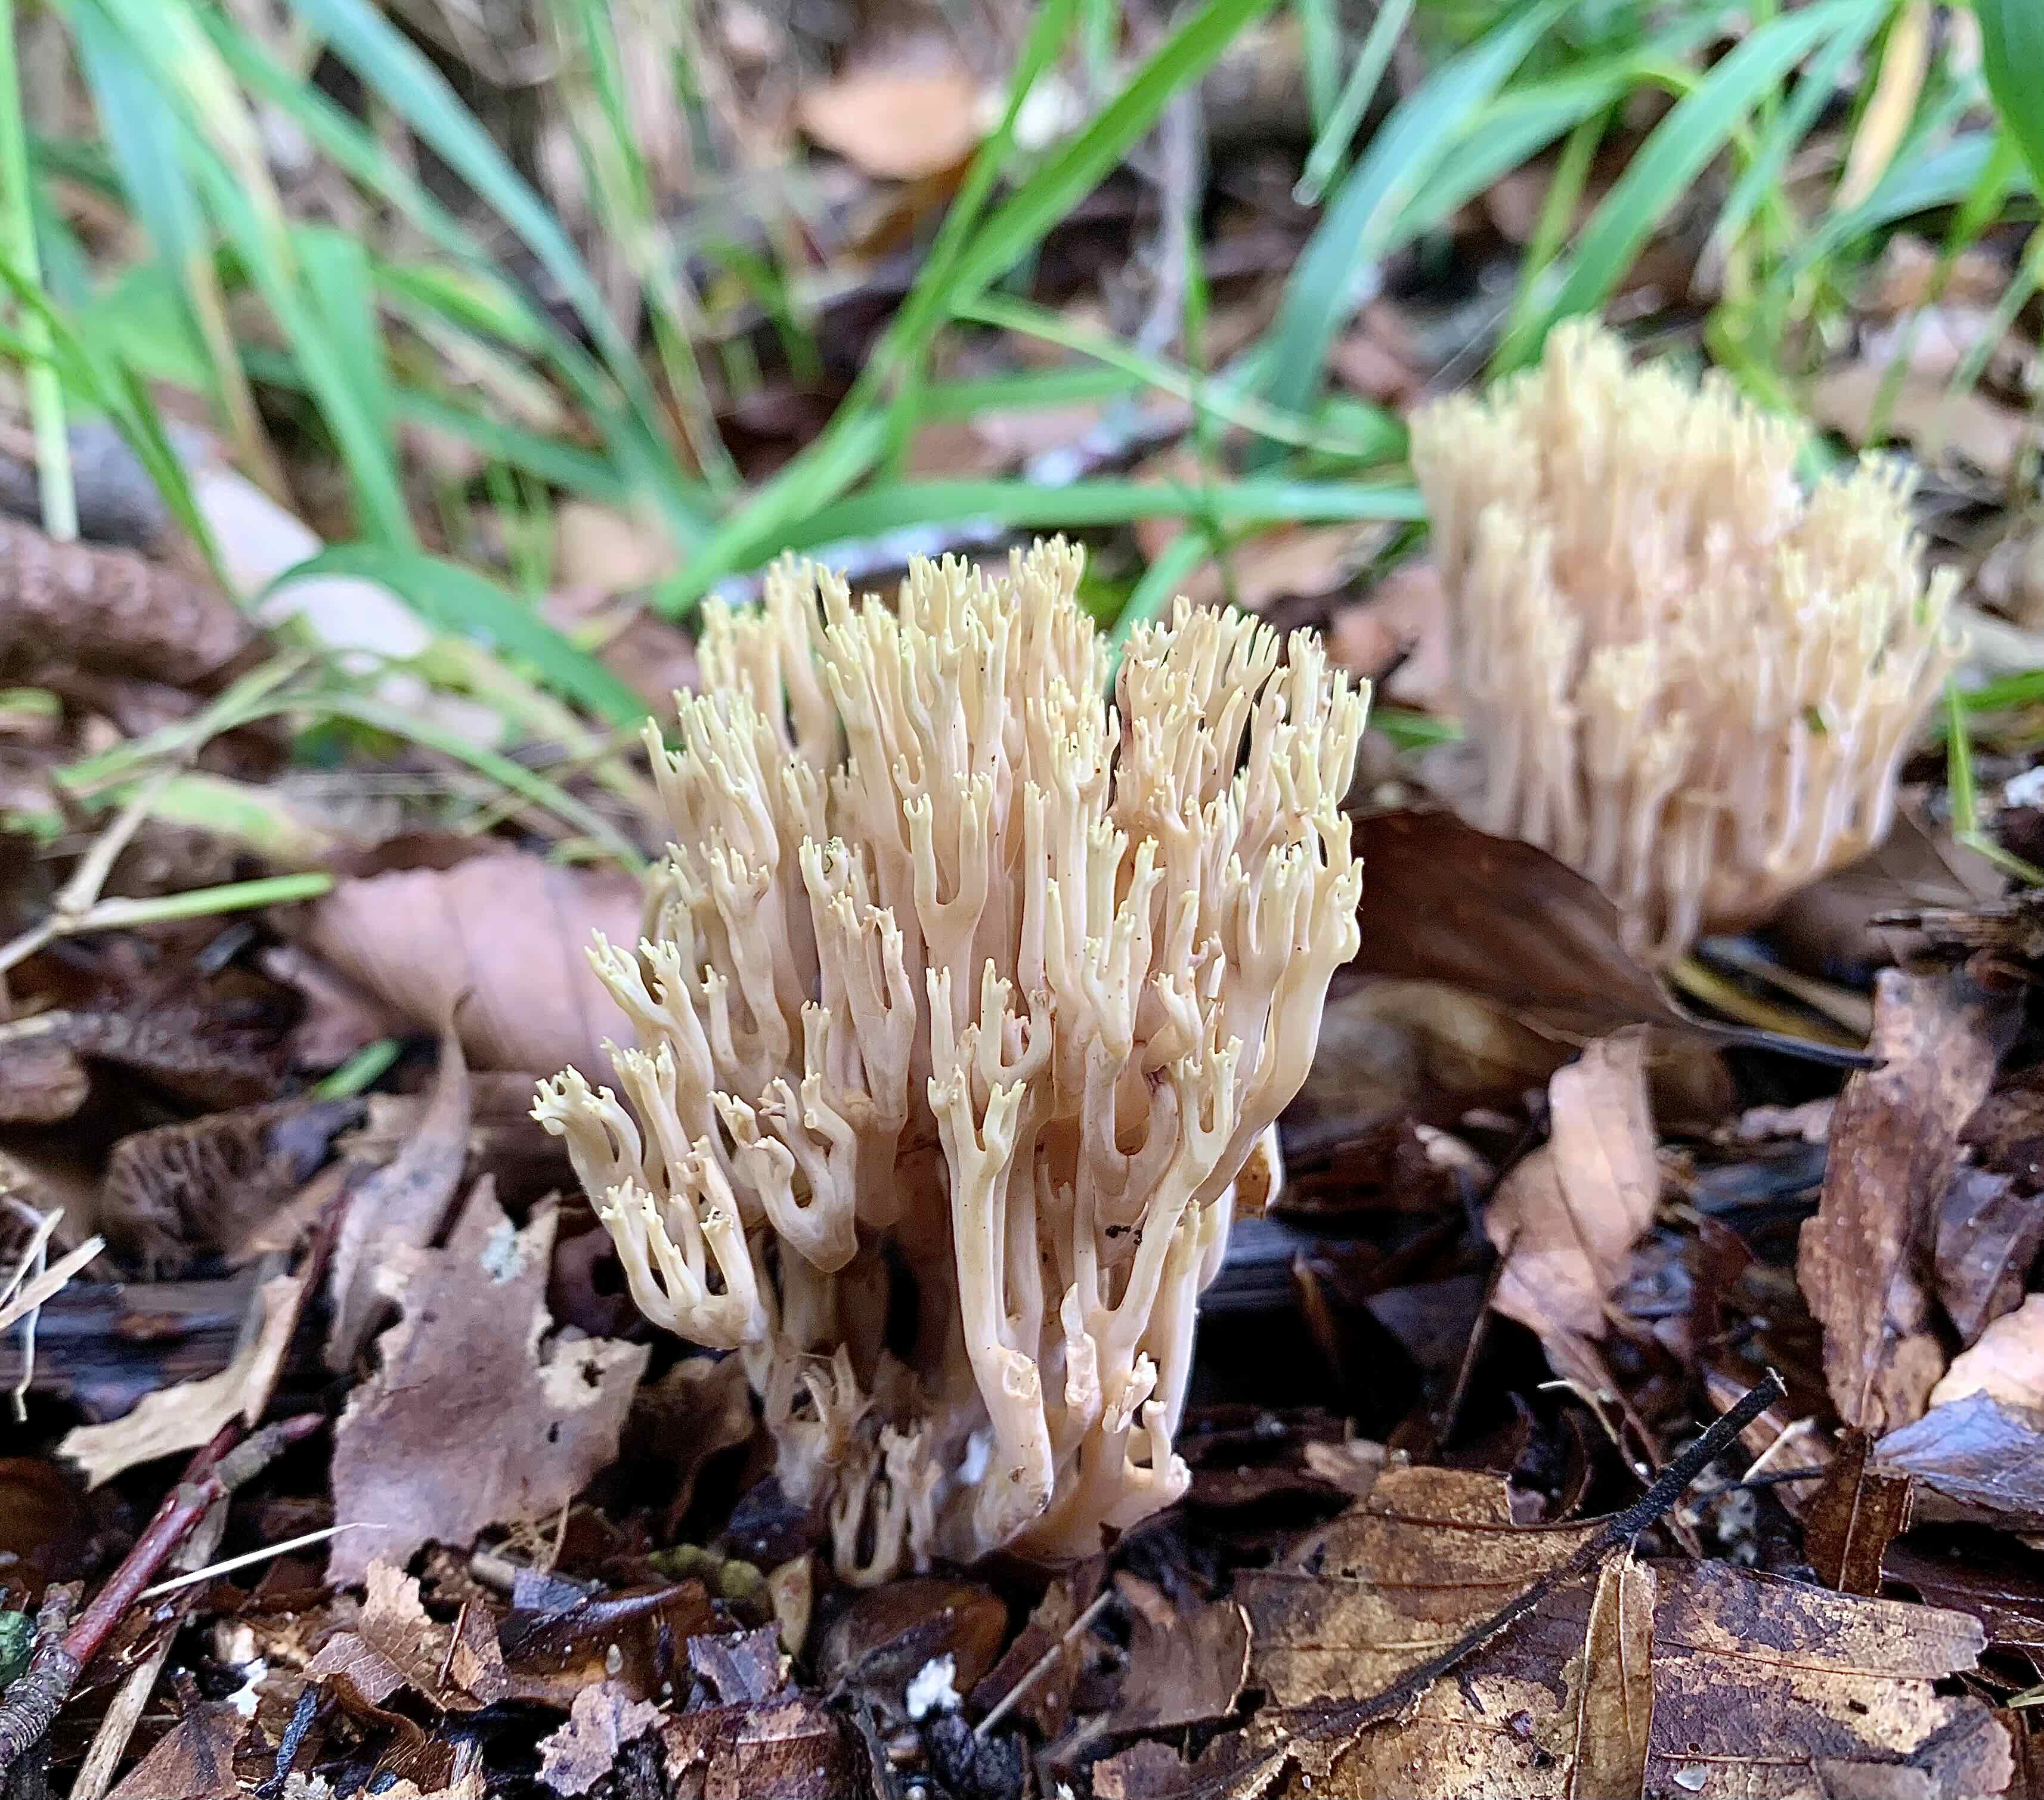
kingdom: Fungi
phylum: Basidiomycota
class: Agaricomycetes
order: Gomphales
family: Gomphaceae
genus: Ramaria
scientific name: Ramaria stricta
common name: rank koralsvamp
